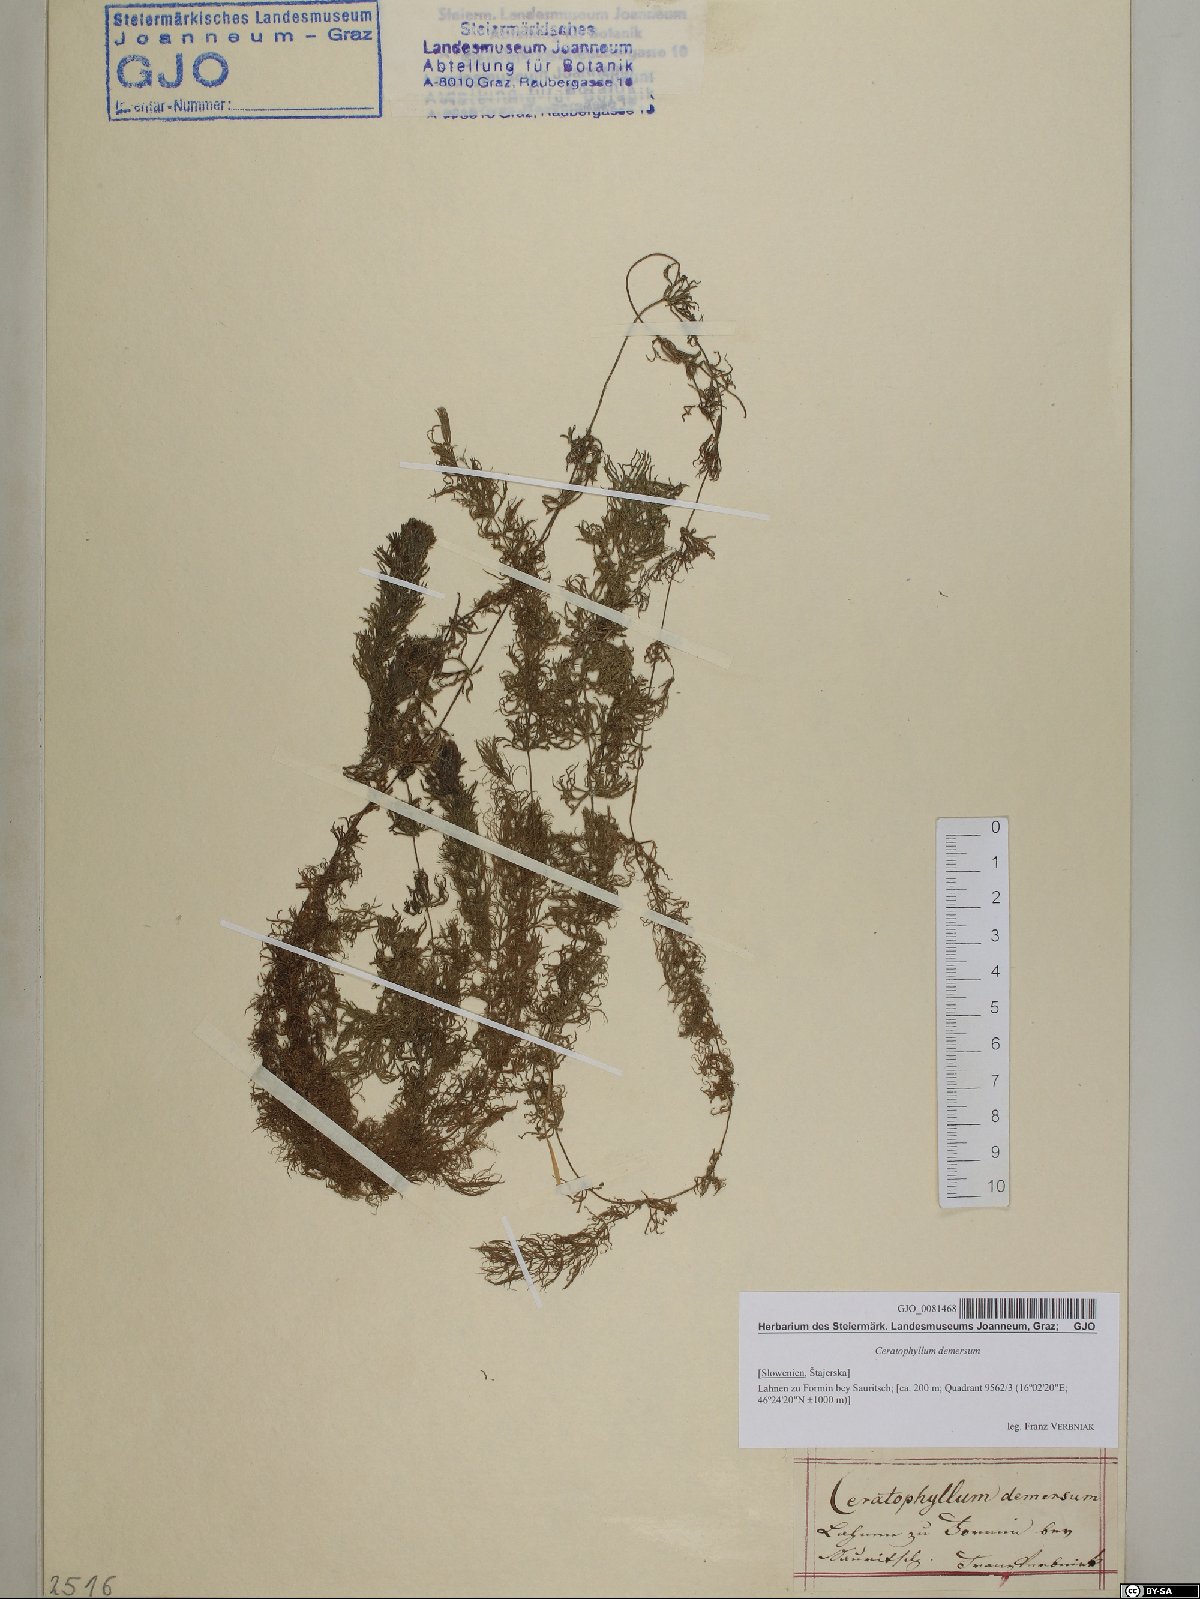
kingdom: Plantae
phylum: Tracheophyta
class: Magnoliopsida
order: Ceratophyllales
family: Ceratophyllaceae
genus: Ceratophyllum
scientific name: Ceratophyllum demersum
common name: Rigid hornwort
